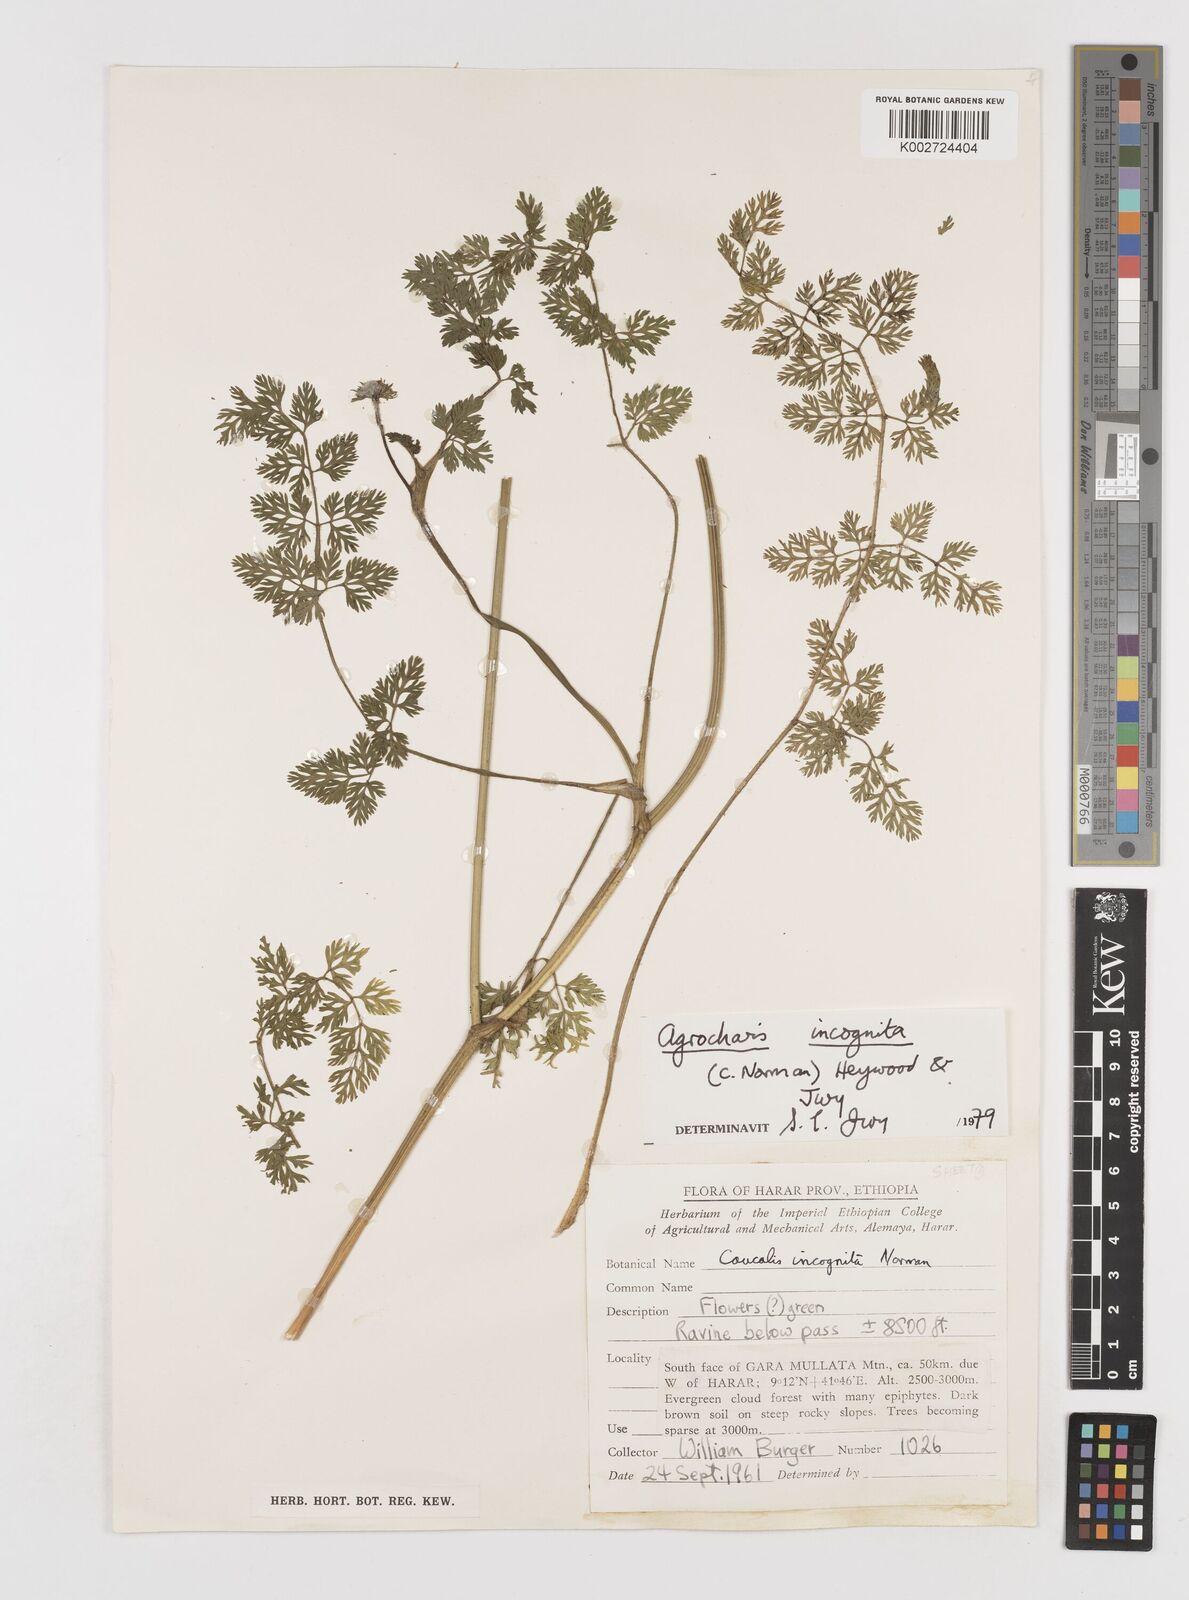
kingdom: Plantae
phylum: Tracheophyta
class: Magnoliopsida
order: Apiales
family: Apiaceae
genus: Daucus
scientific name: Daucus incognitus
